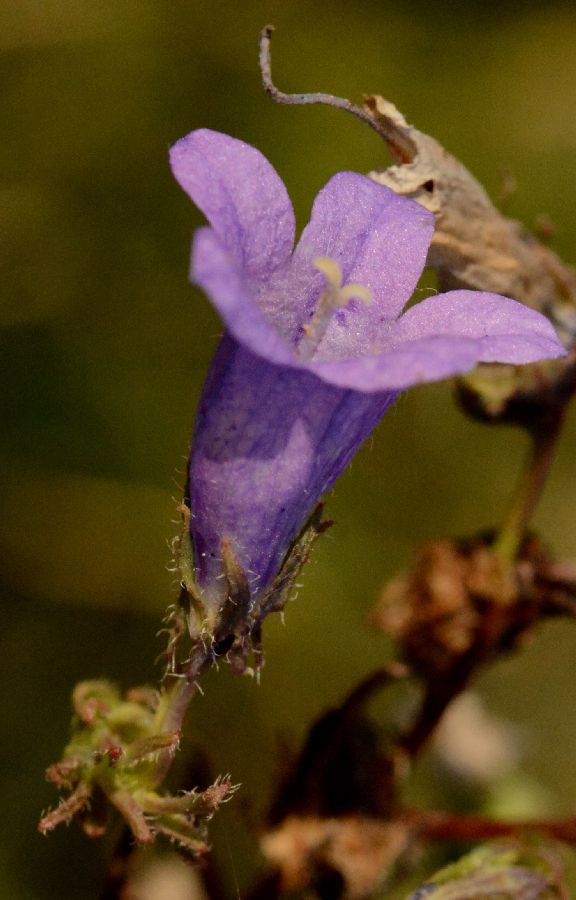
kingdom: Plantae
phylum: Tracheophyta
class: Magnoliopsida
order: Asterales
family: Campanulaceae
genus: Campanula
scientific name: Campanula sibirica
